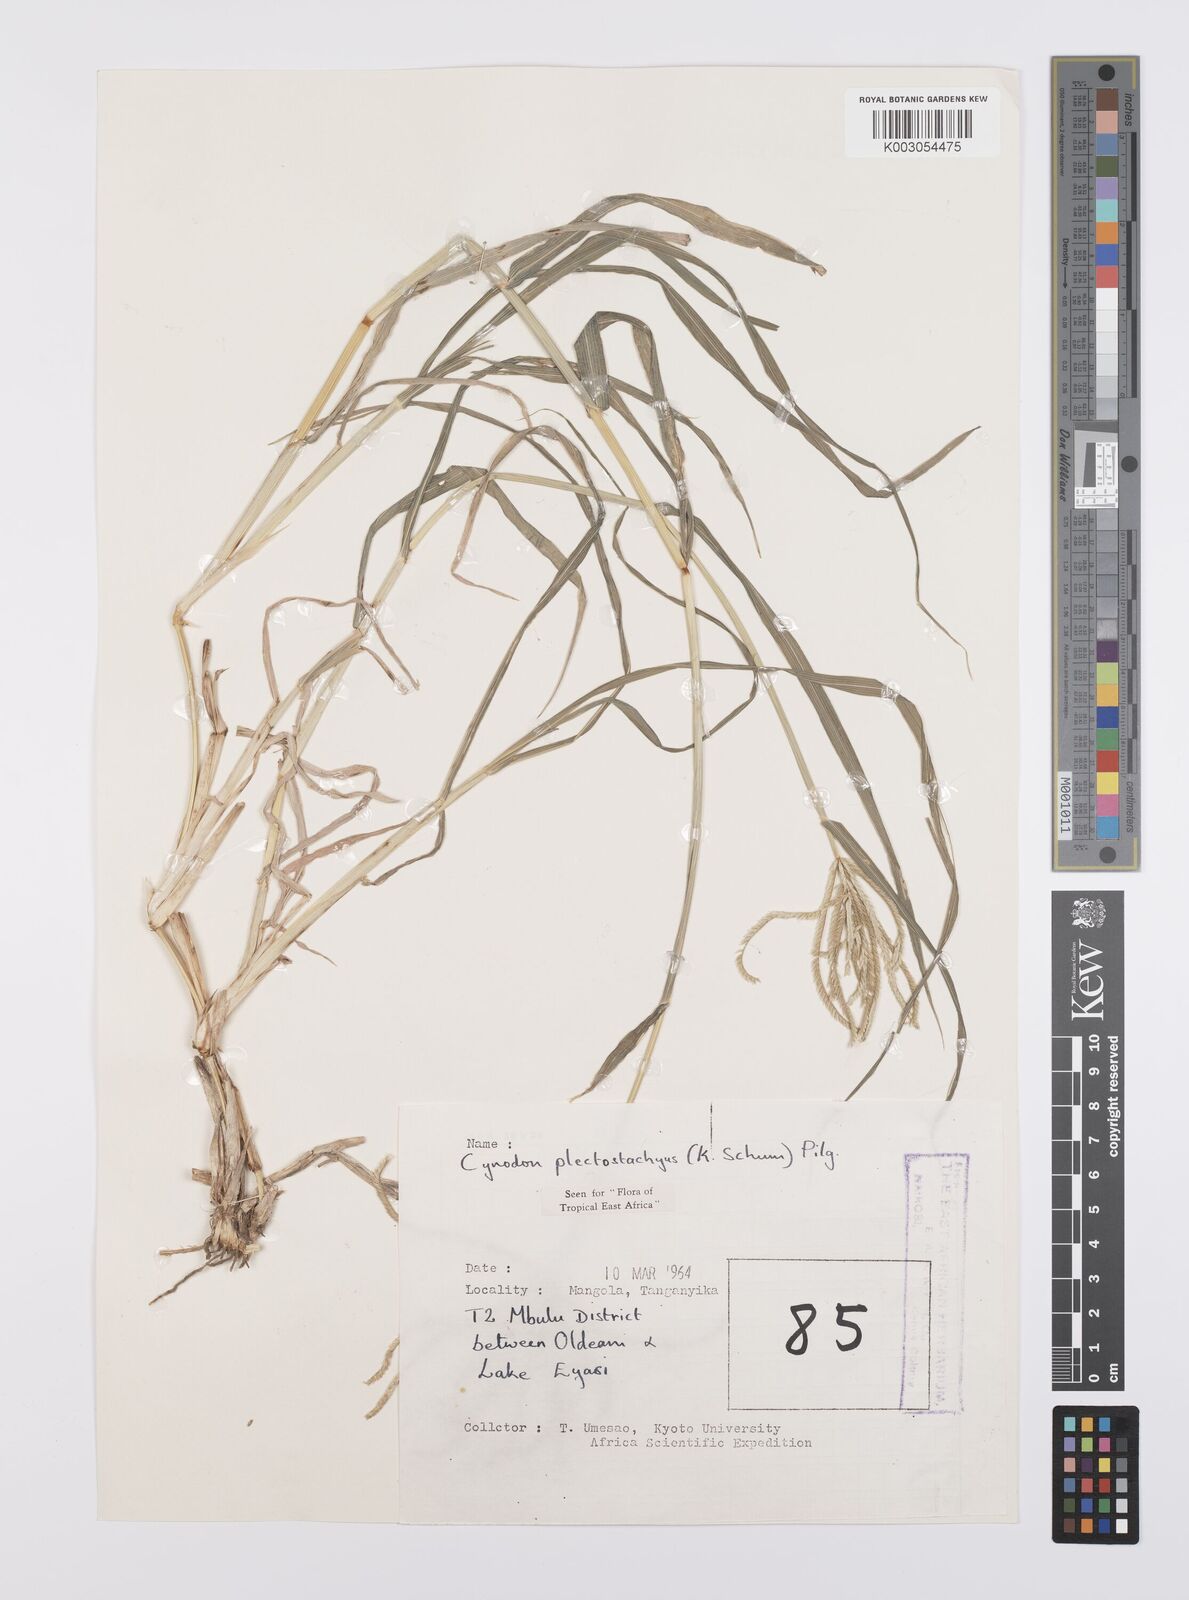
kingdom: Plantae
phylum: Tracheophyta
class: Liliopsida
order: Poales
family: Poaceae
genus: Cynodon
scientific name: Cynodon plectostachyus
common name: Stargrass
